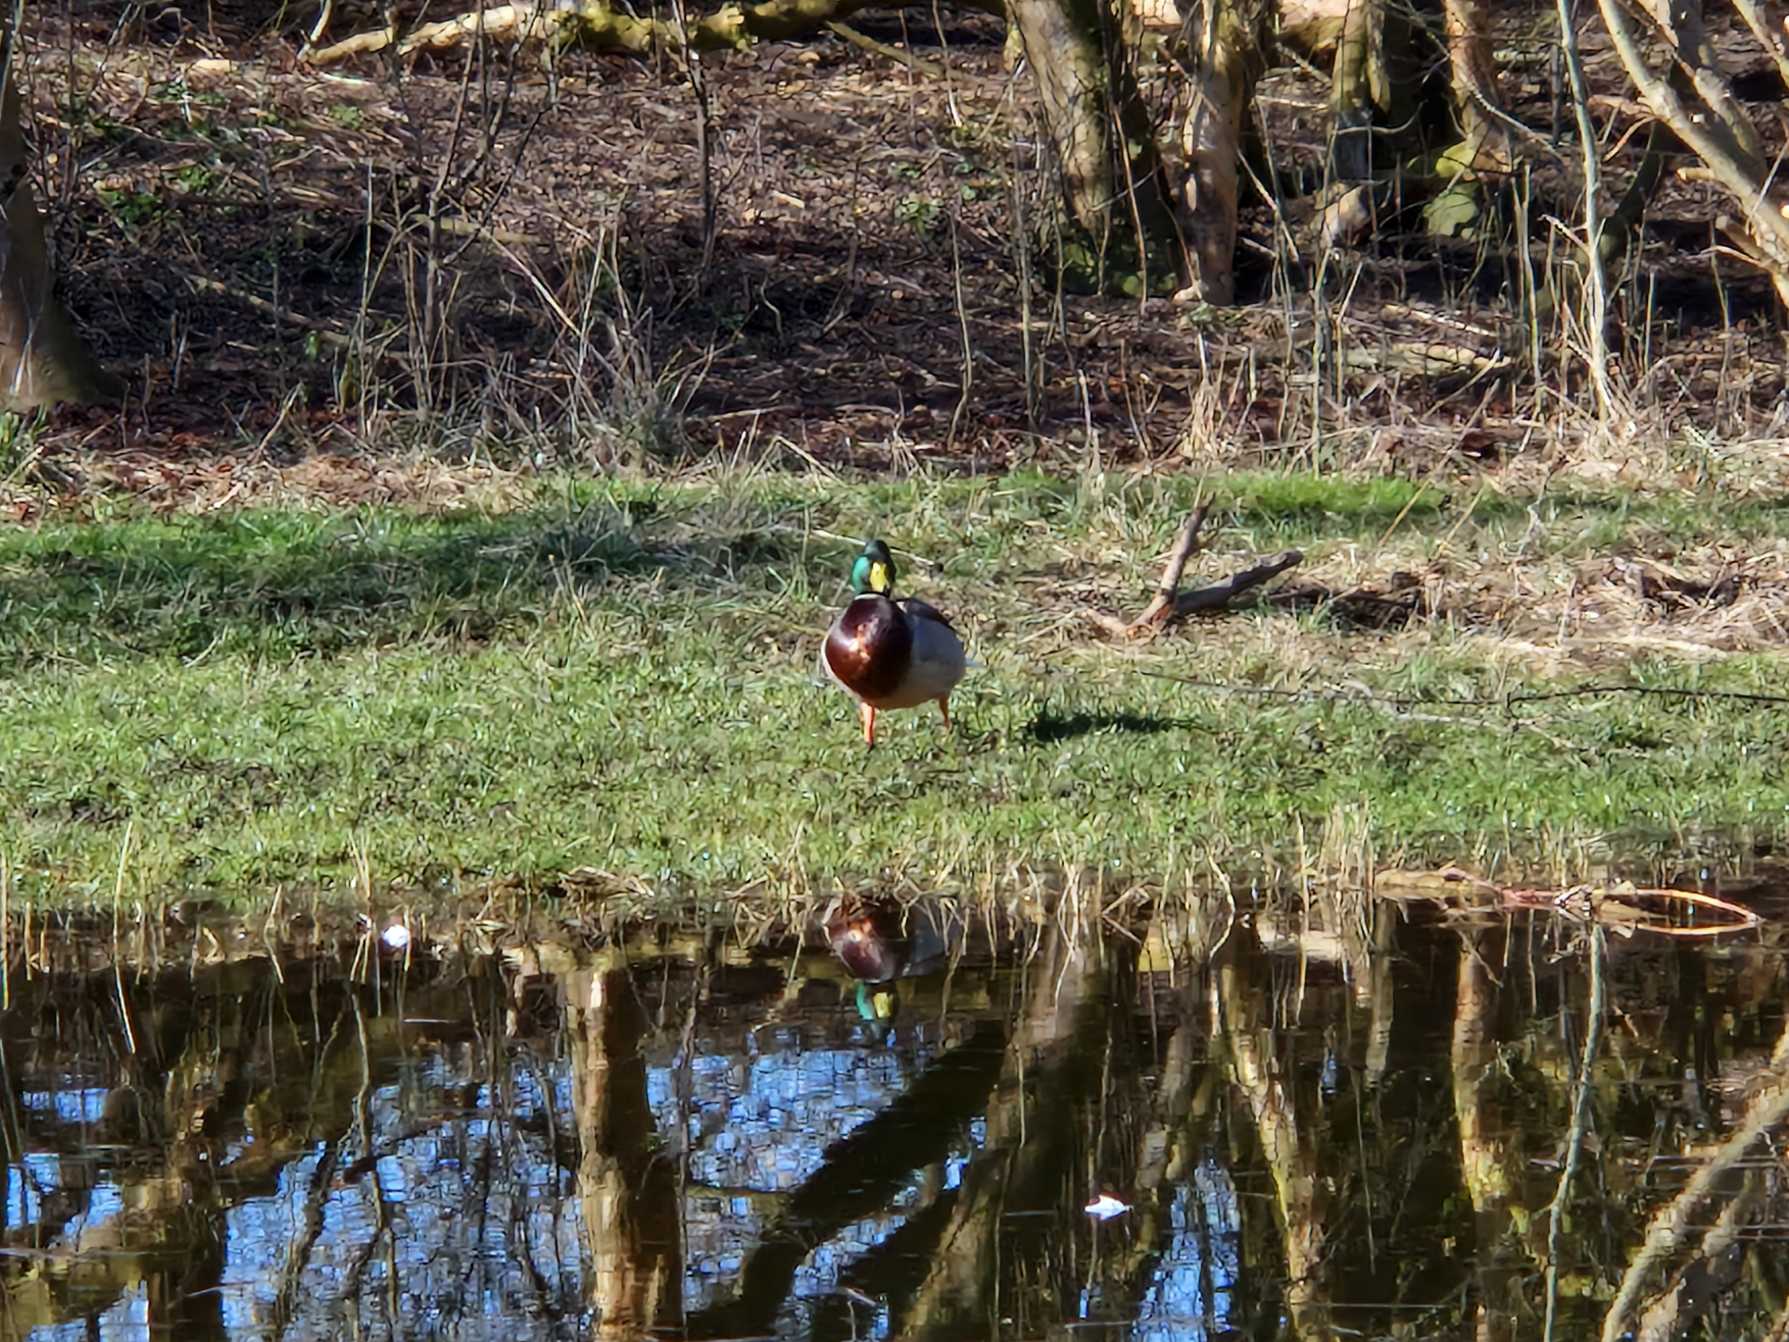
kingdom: Animalia
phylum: Chordata
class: Aves
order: Anseriformes
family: Anatidae
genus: Anas
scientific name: Anas platyrhynchos
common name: Gråand
